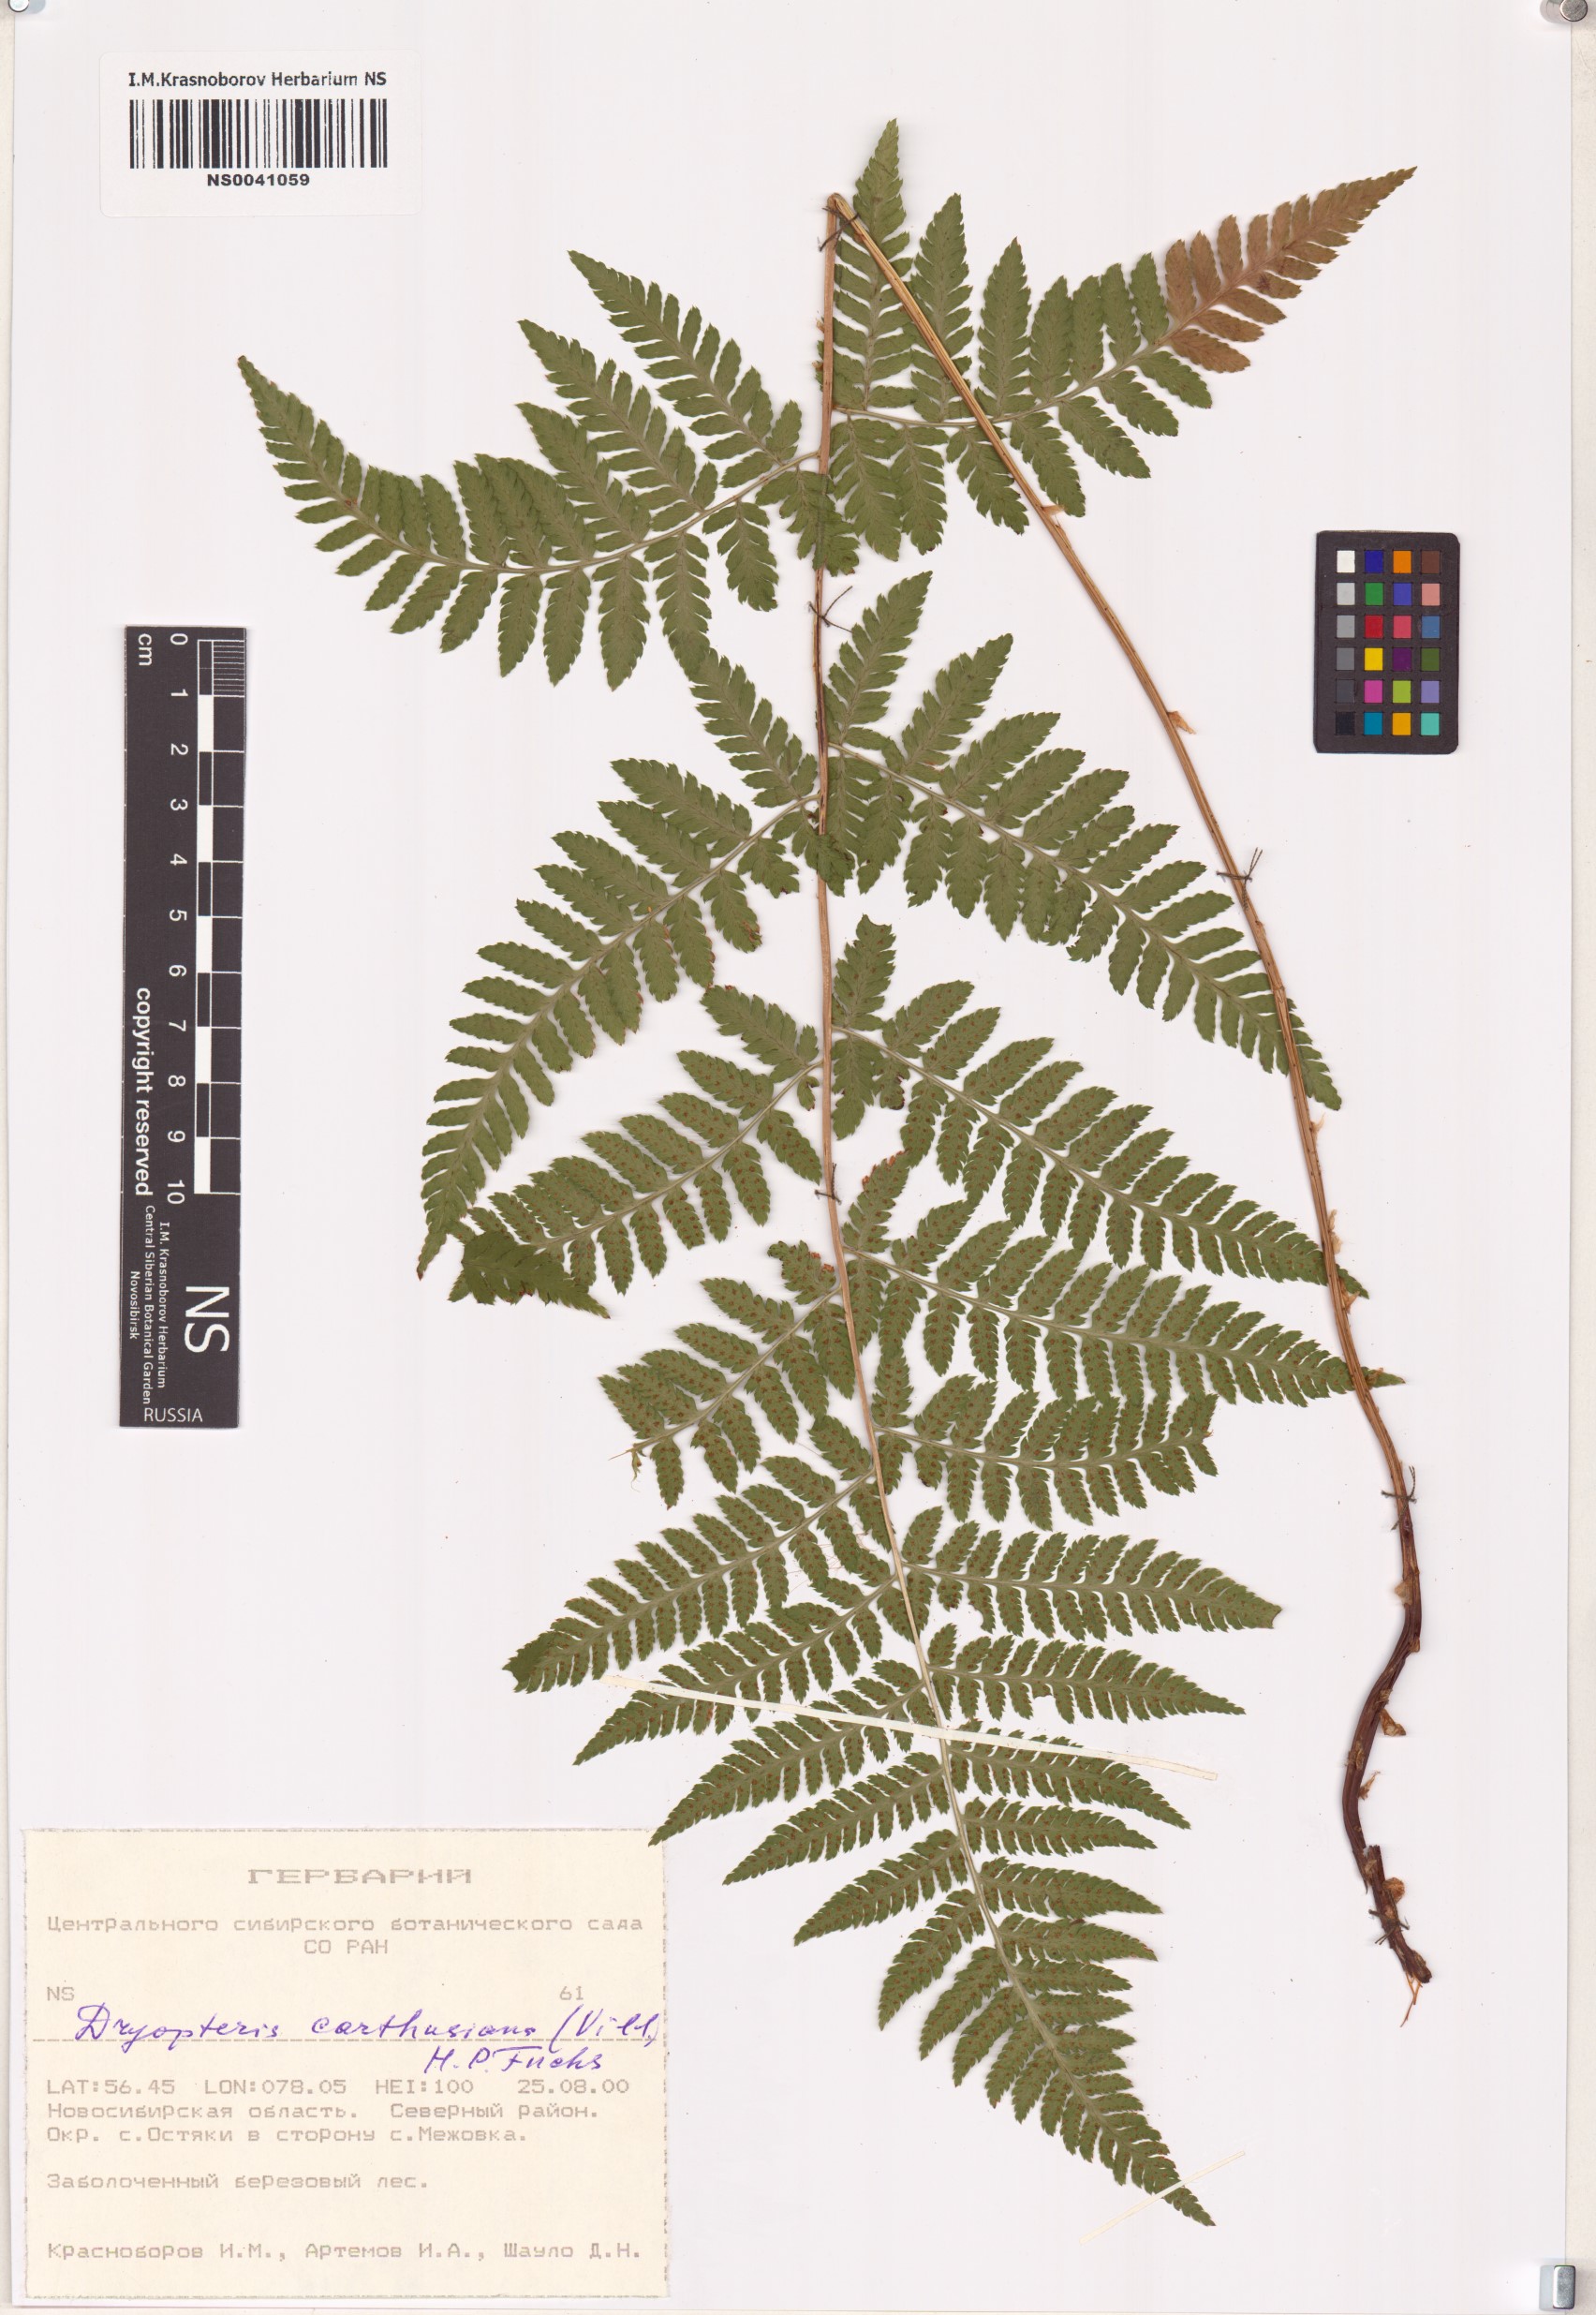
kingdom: Plantae
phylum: Tracheophyta
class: Polypodiopsida
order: Polypodiales
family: Dryopteridaceae
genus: Dryopteris
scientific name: Dryopteris carthusiana
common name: Narrow buckler-fern
